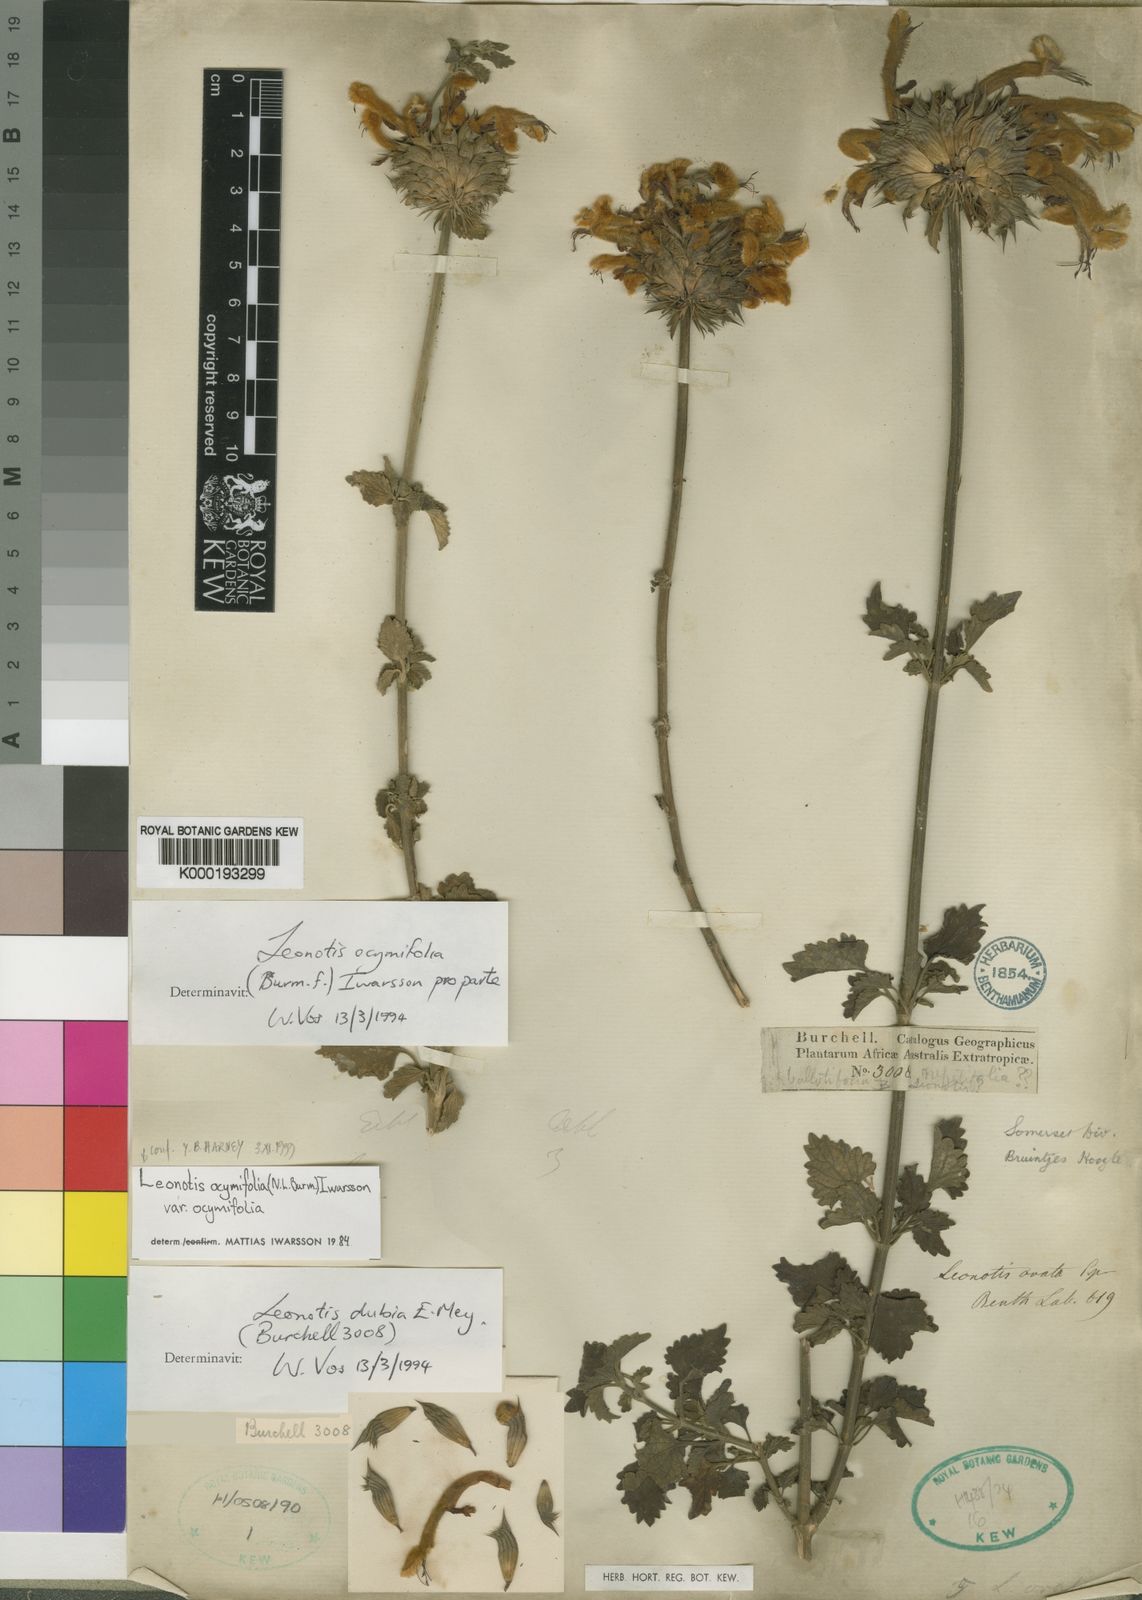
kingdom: Plantae
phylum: Tracheophyta
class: Magnoliopsida
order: Lamiales
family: Lamiaceae
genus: Leonotis
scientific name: Leonotis ocymifolia
